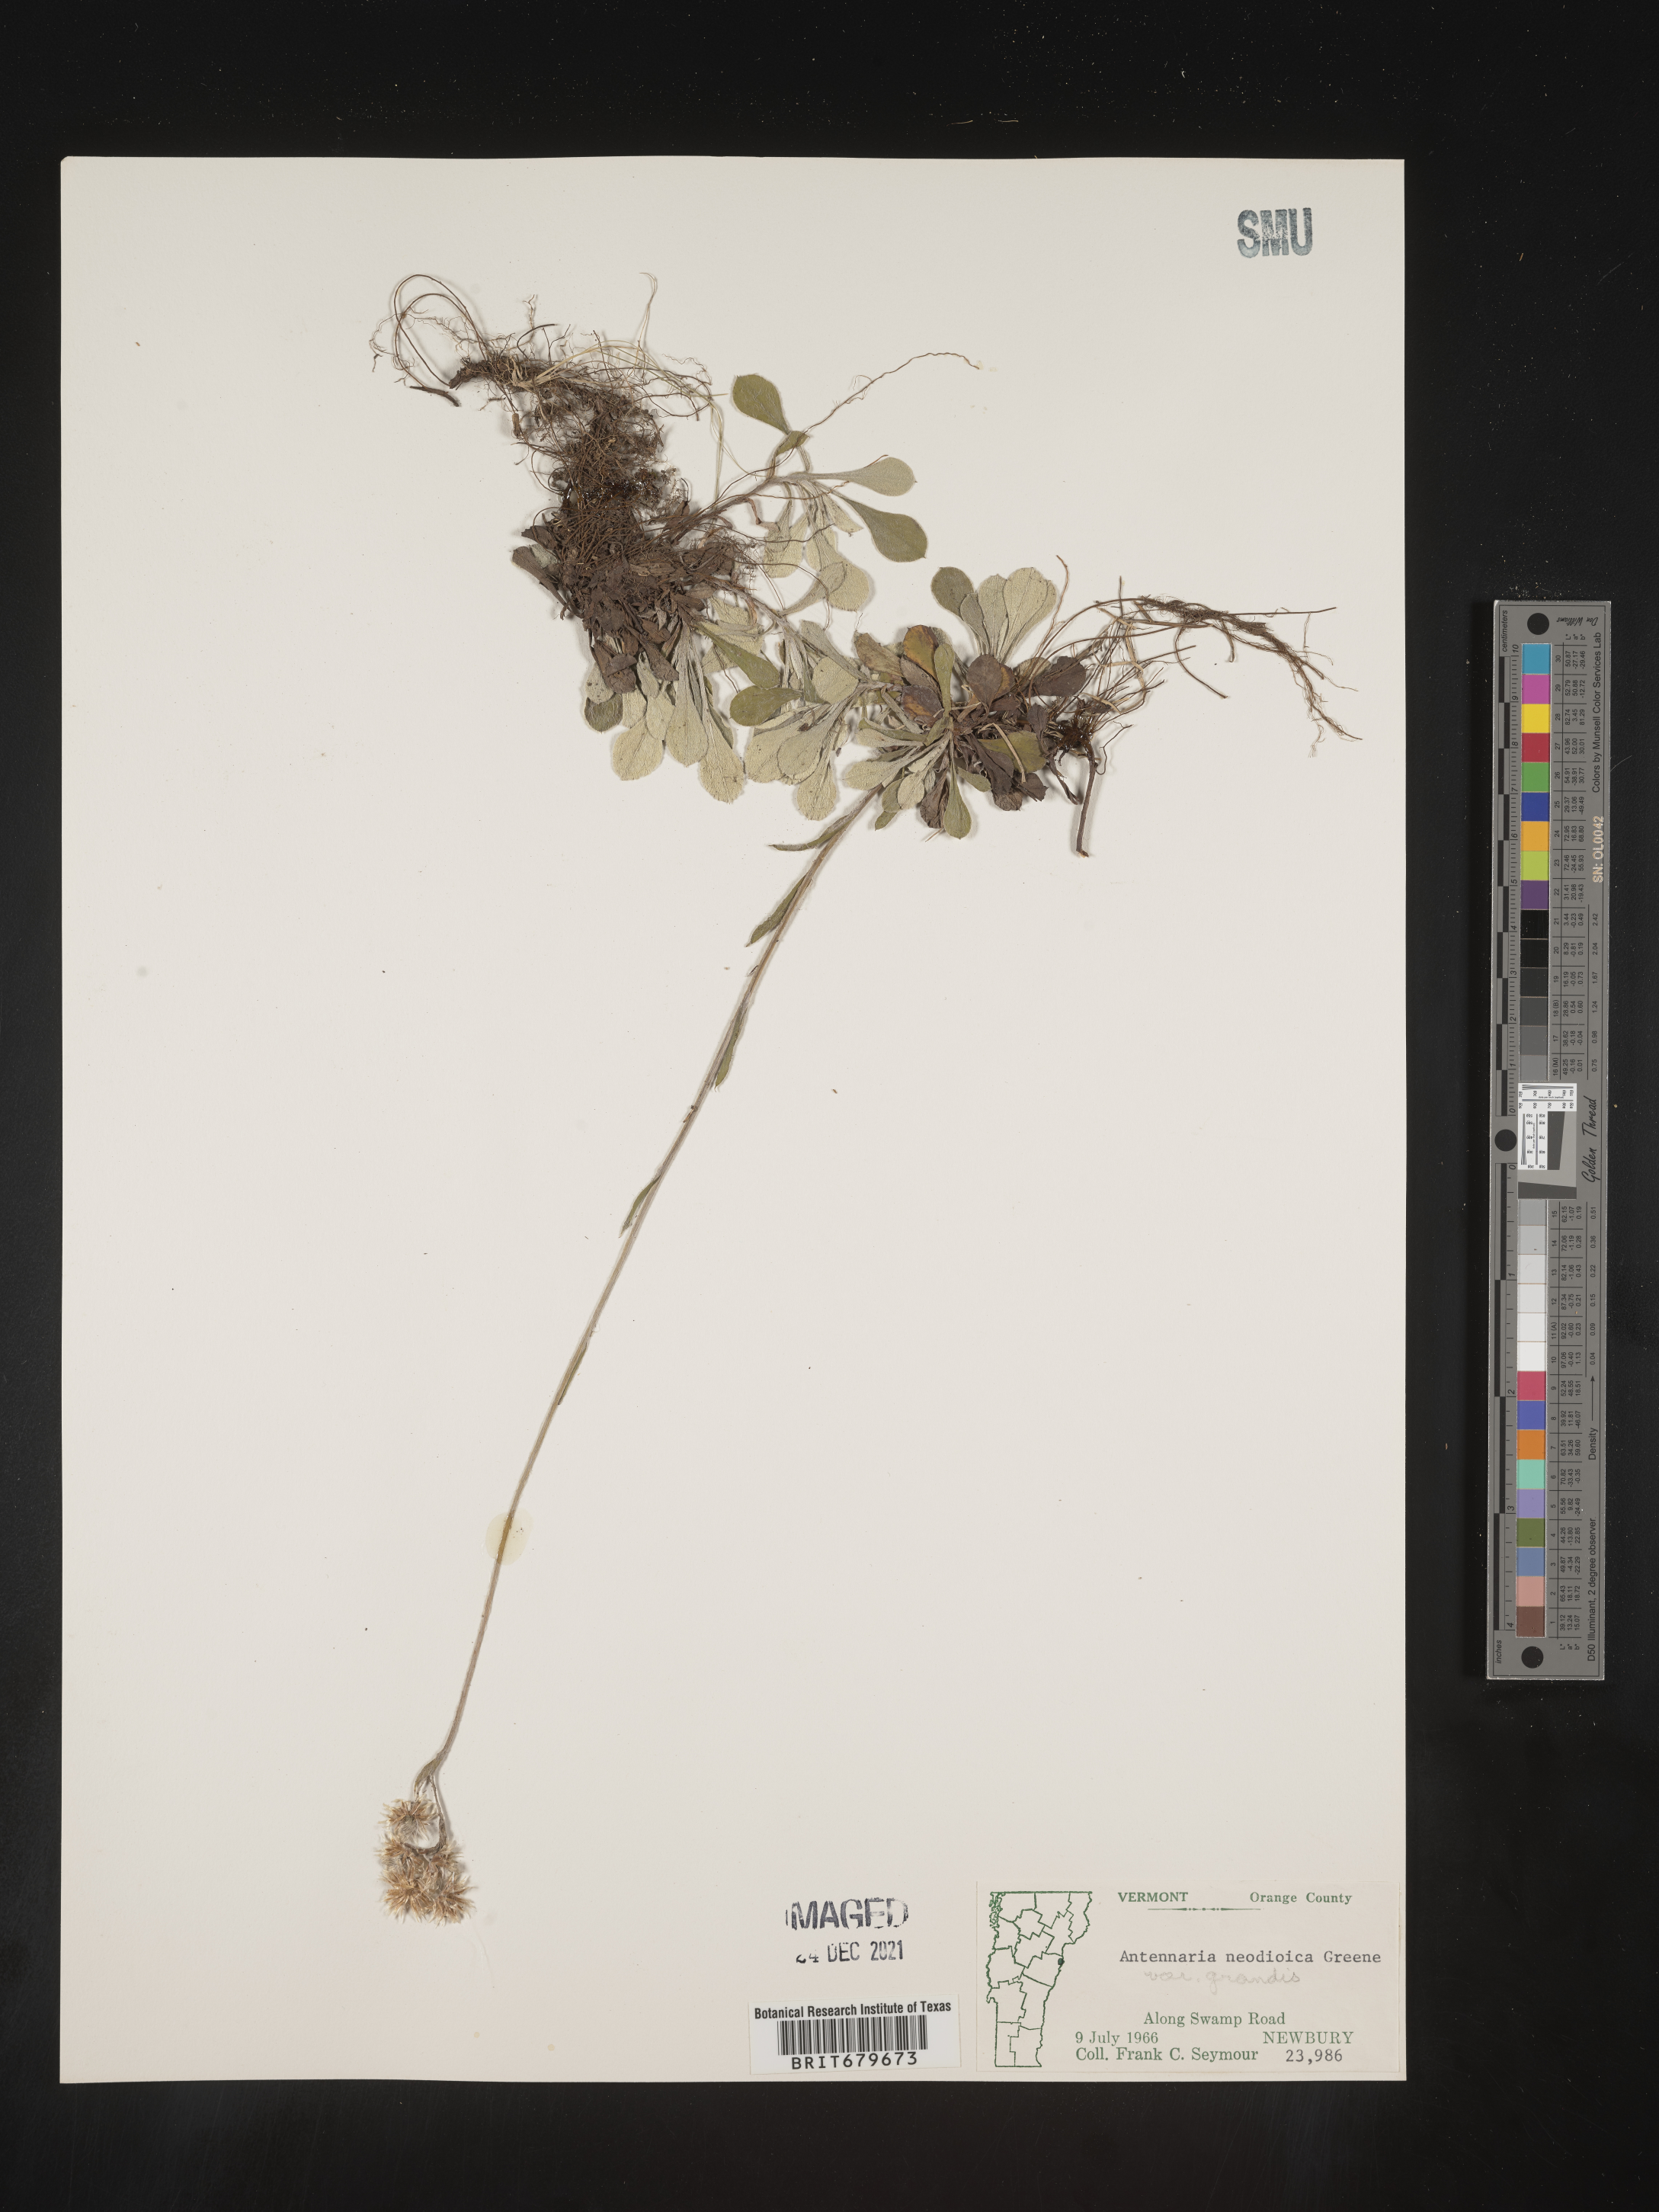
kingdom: Plantae
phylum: Tracheophyta
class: Magnoliopsida
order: Asterales
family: Asteraceae
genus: Antennaria
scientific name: Antennaria howellii
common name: Howell's pussytoes
